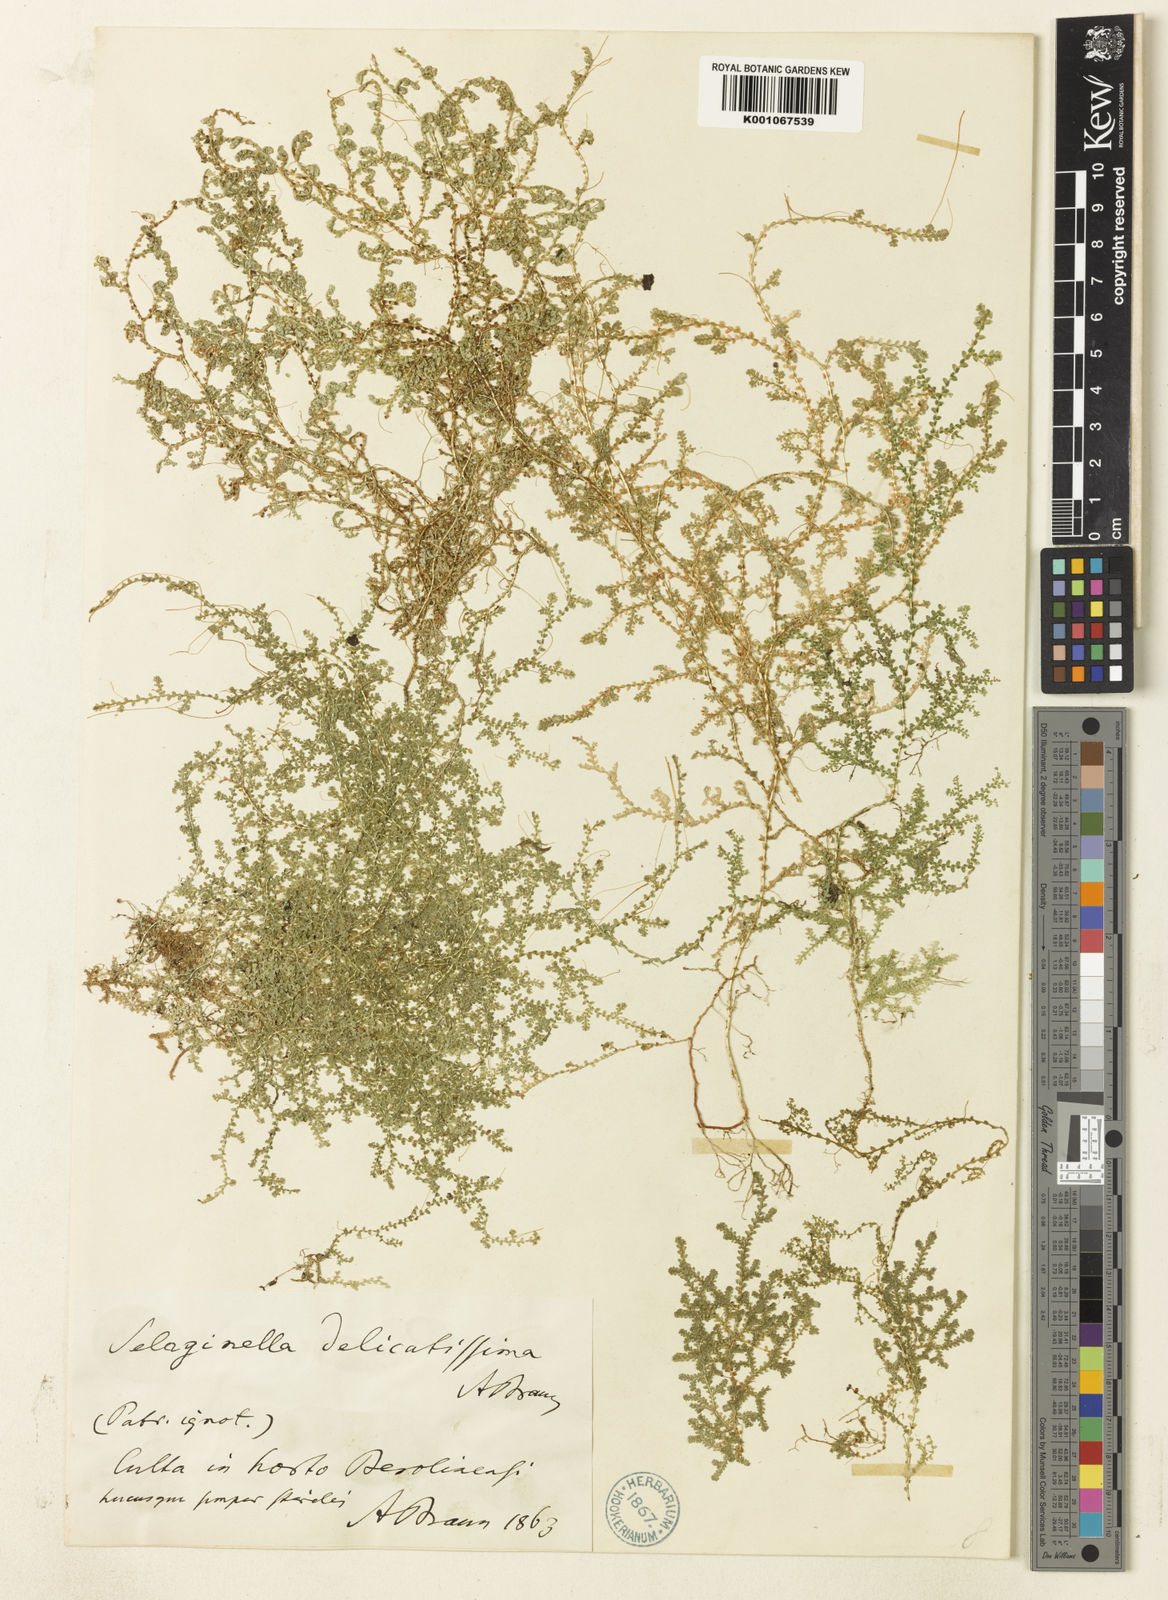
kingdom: Plantae
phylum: Tracheophyta
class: Lycopodiopsida
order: Selaginellales
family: Selaginellaceae
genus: Selaginella
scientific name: Selaginella
